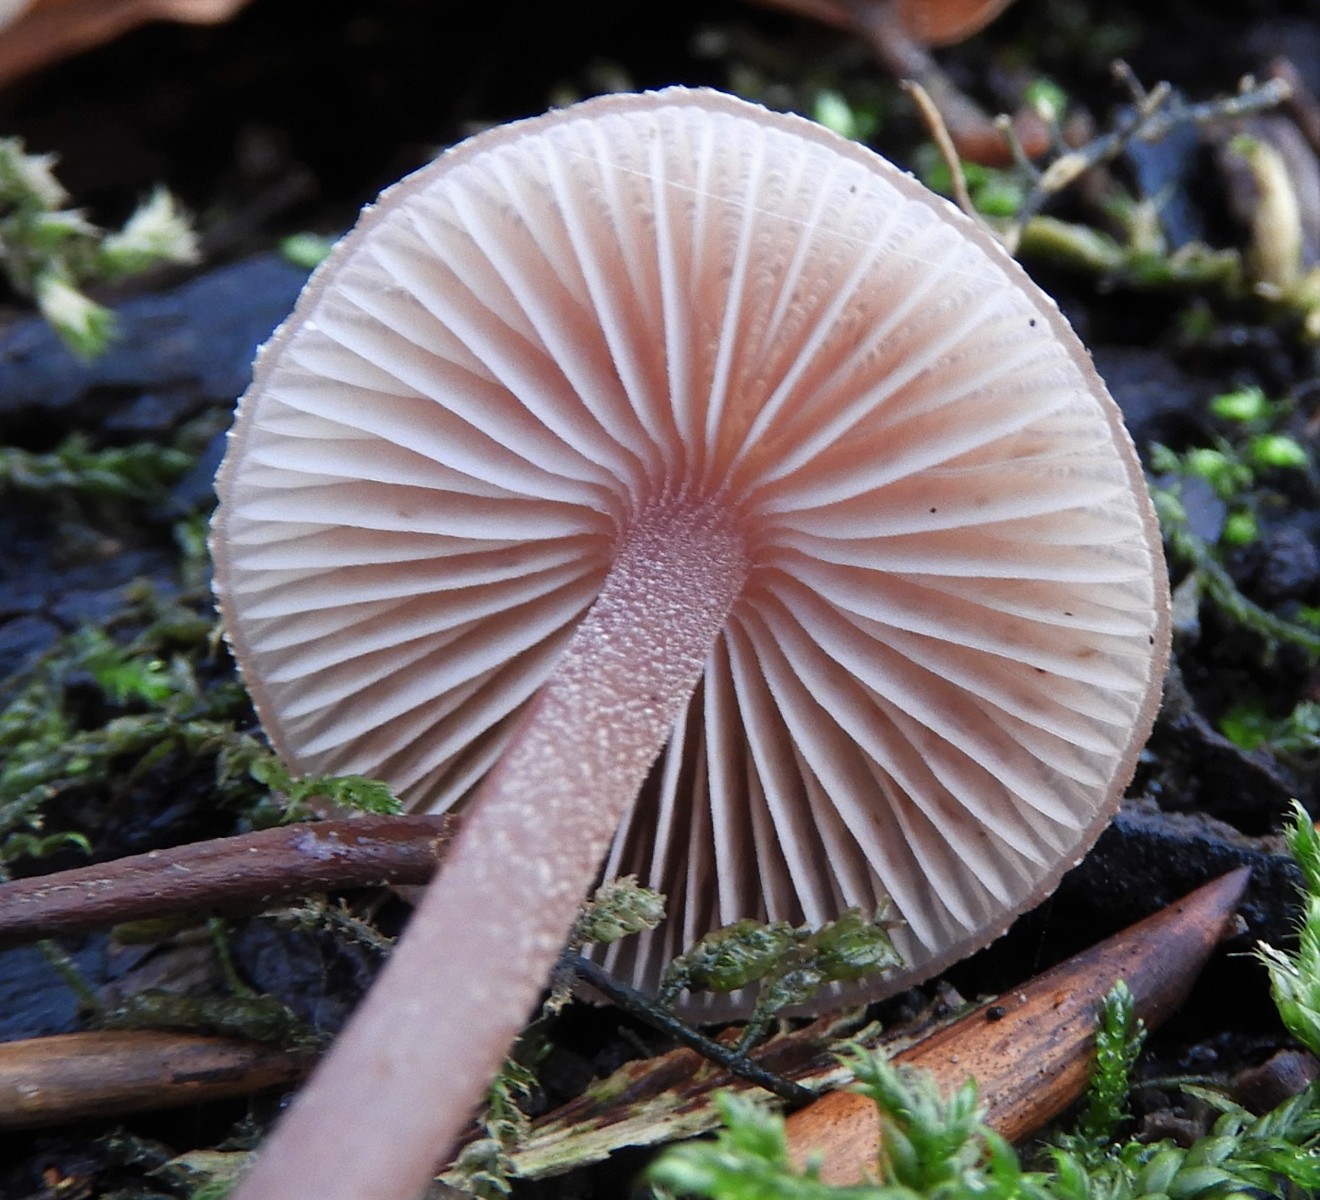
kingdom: Fungi
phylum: Basidiomycota
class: Agaricomycetes
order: Agaricales
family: Mycenaceae
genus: Mycena
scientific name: Mycena haematopus
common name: blødende huesvamp
